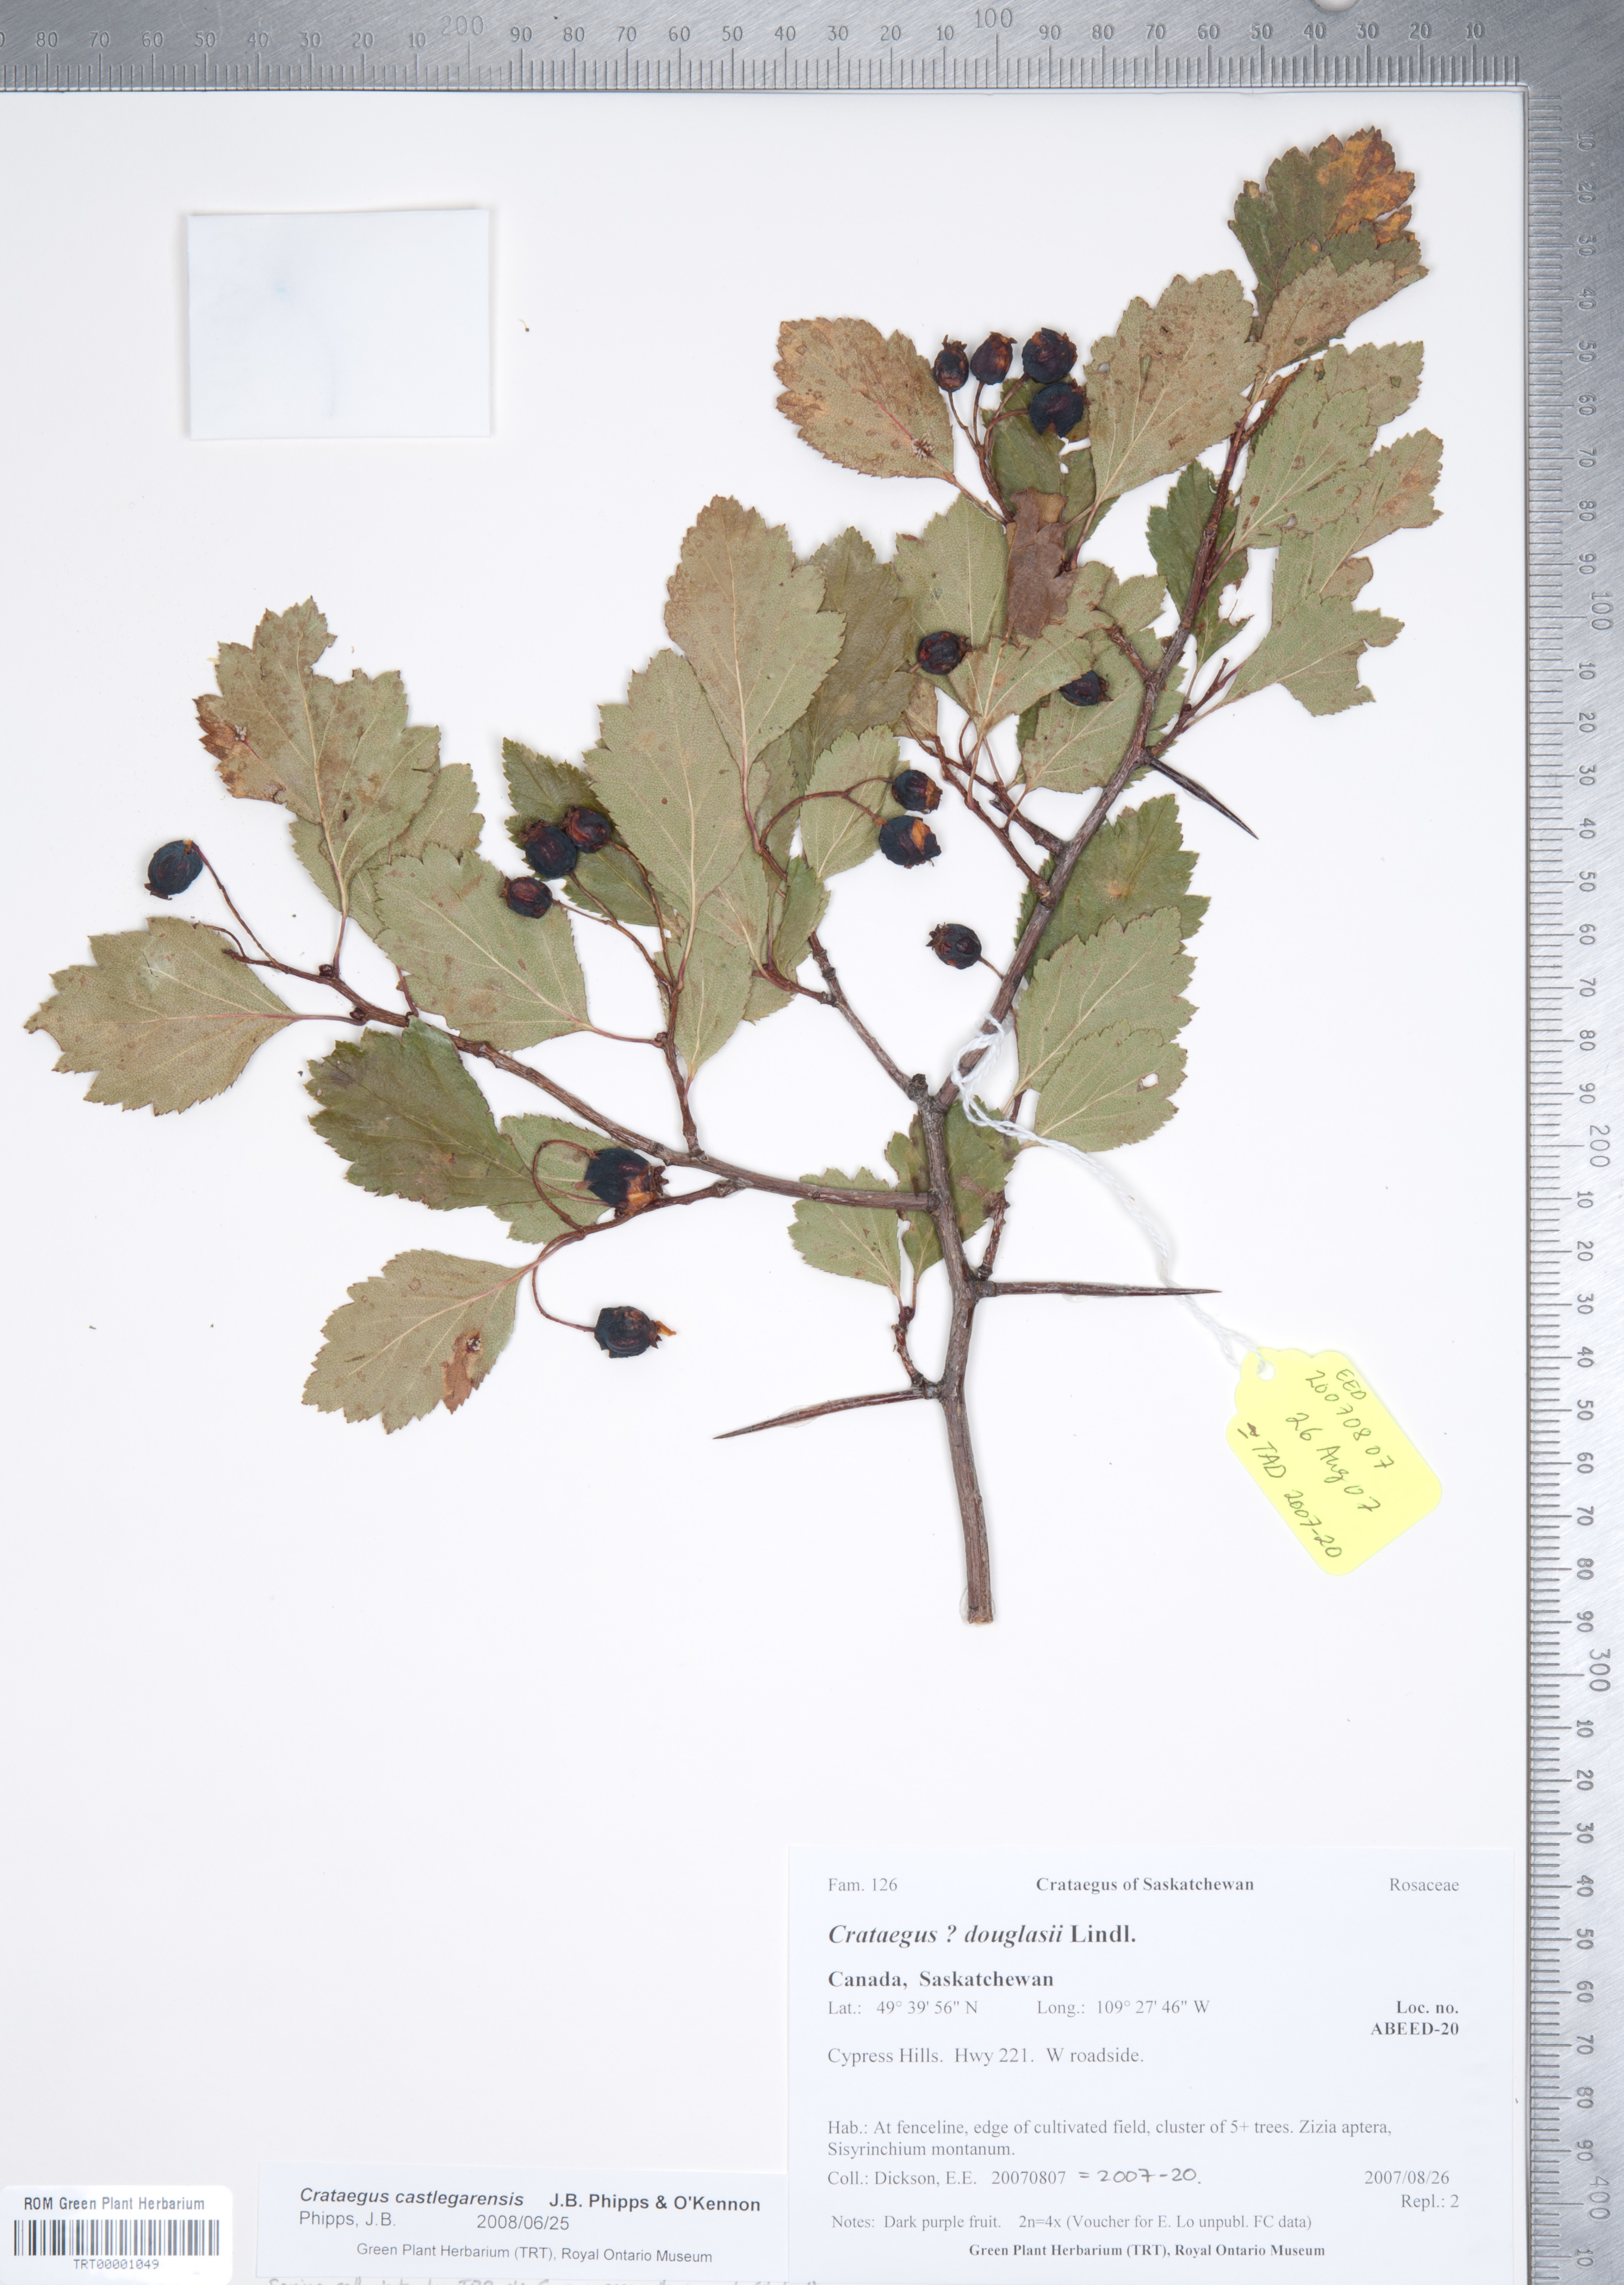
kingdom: Plantae
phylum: Tracheophyta
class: Magnoliopsida
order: Rosales
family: Rosaceae
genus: Crataegus
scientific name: Crataegus castlegarensis
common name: Castlegar hawthorn
